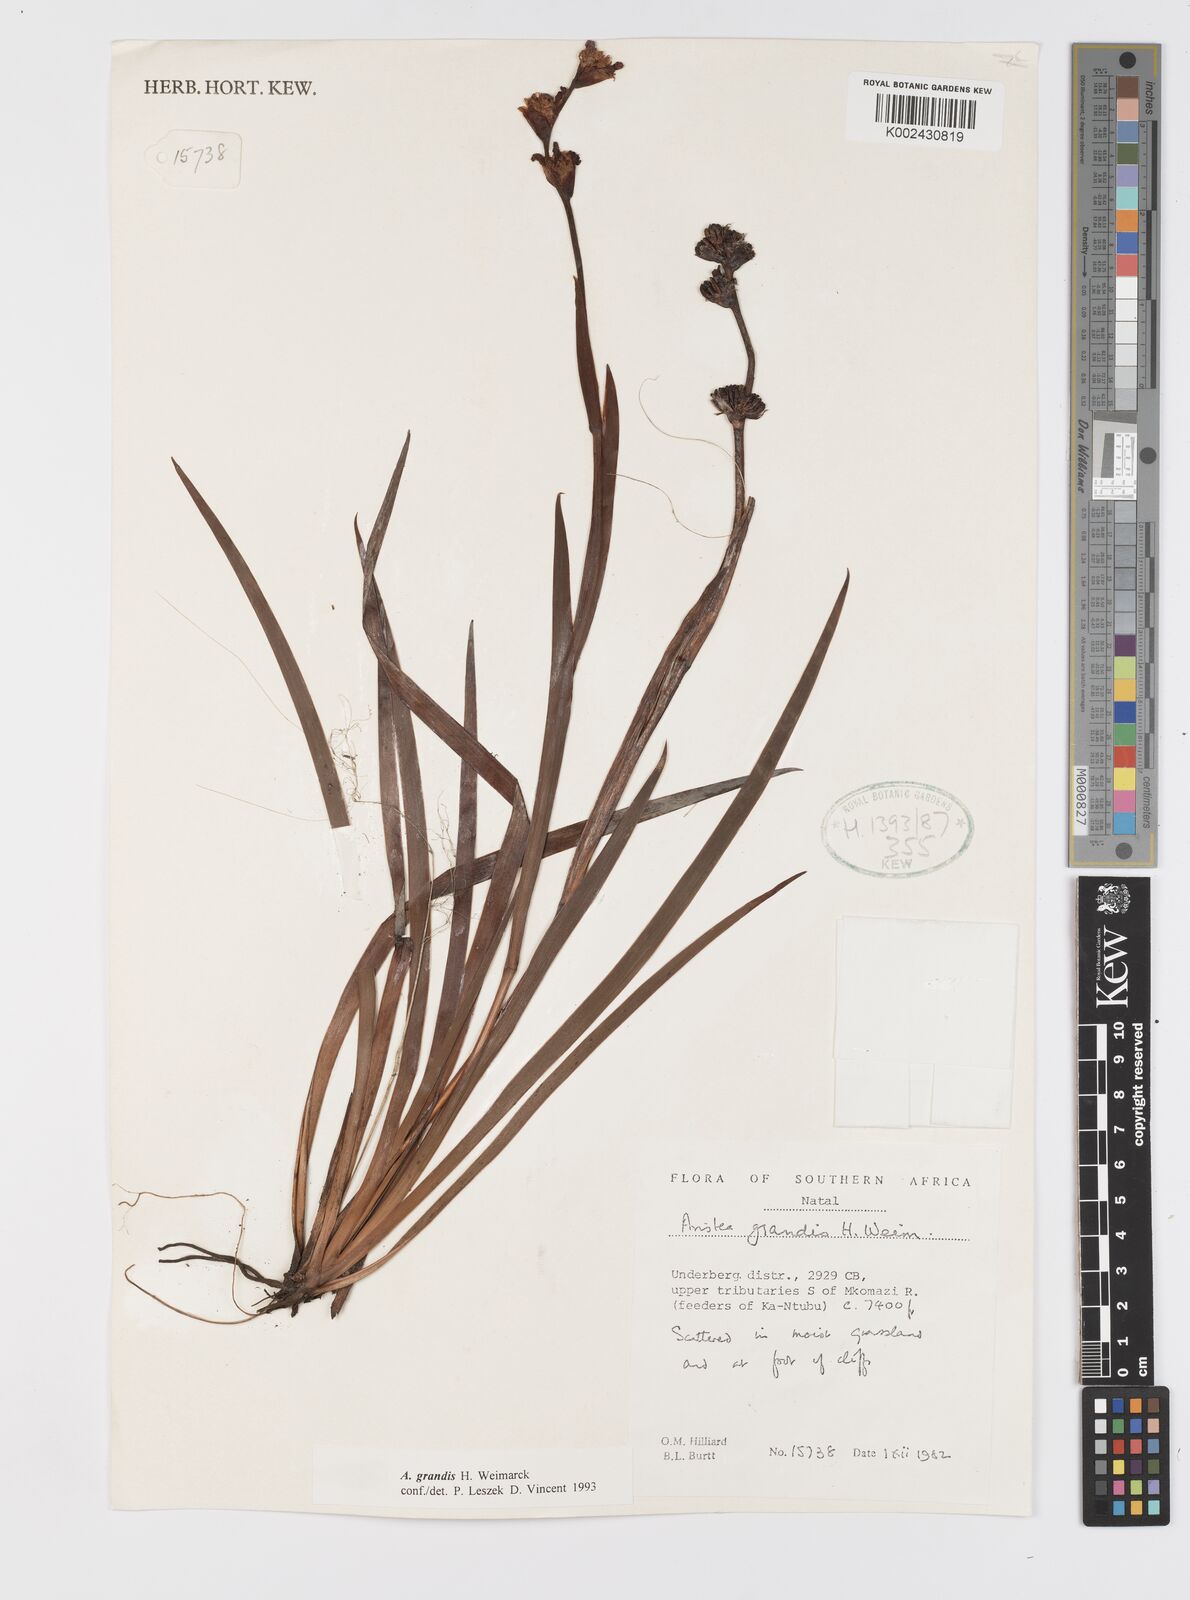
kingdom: Plantae
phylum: Tracheophyta
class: Liliopsida
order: Asparagales
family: Iridaceae
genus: Aristea
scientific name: Aristea grandis
